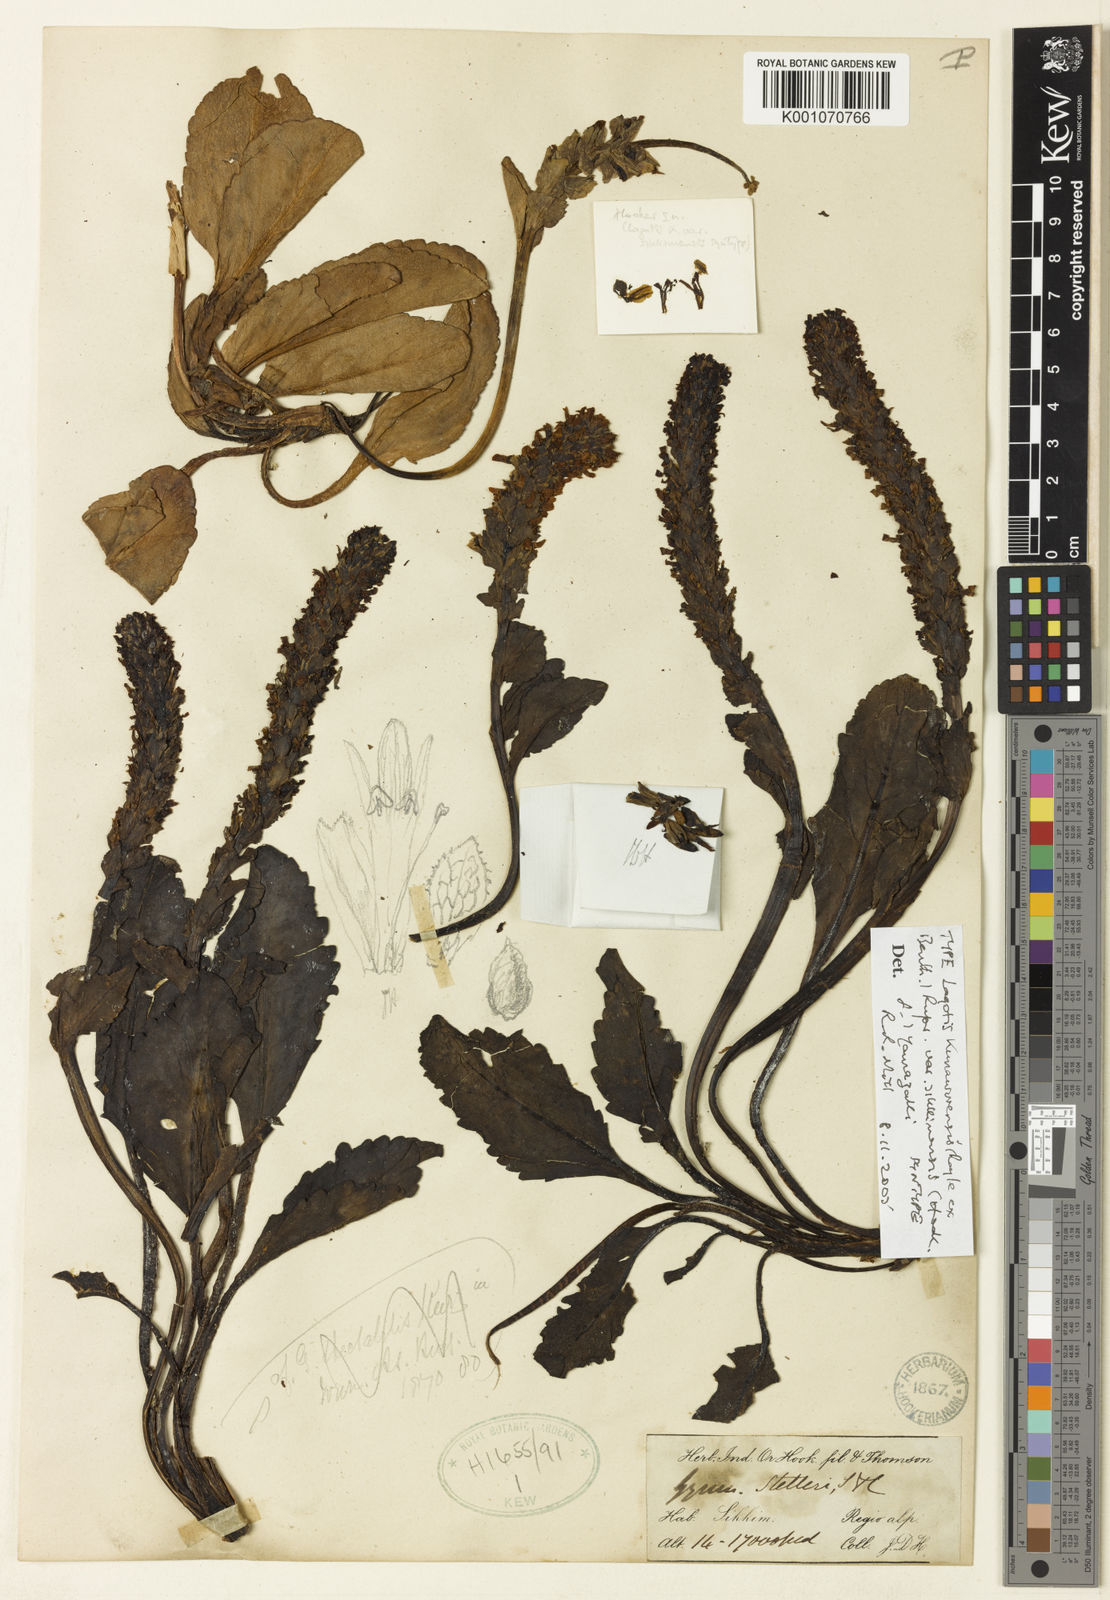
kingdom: Plantae
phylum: Tracheophyta
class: Magnoliopsida
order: Lamiales
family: Plantaginaceae
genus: Lagotis
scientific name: Lagotis kunawurensis
